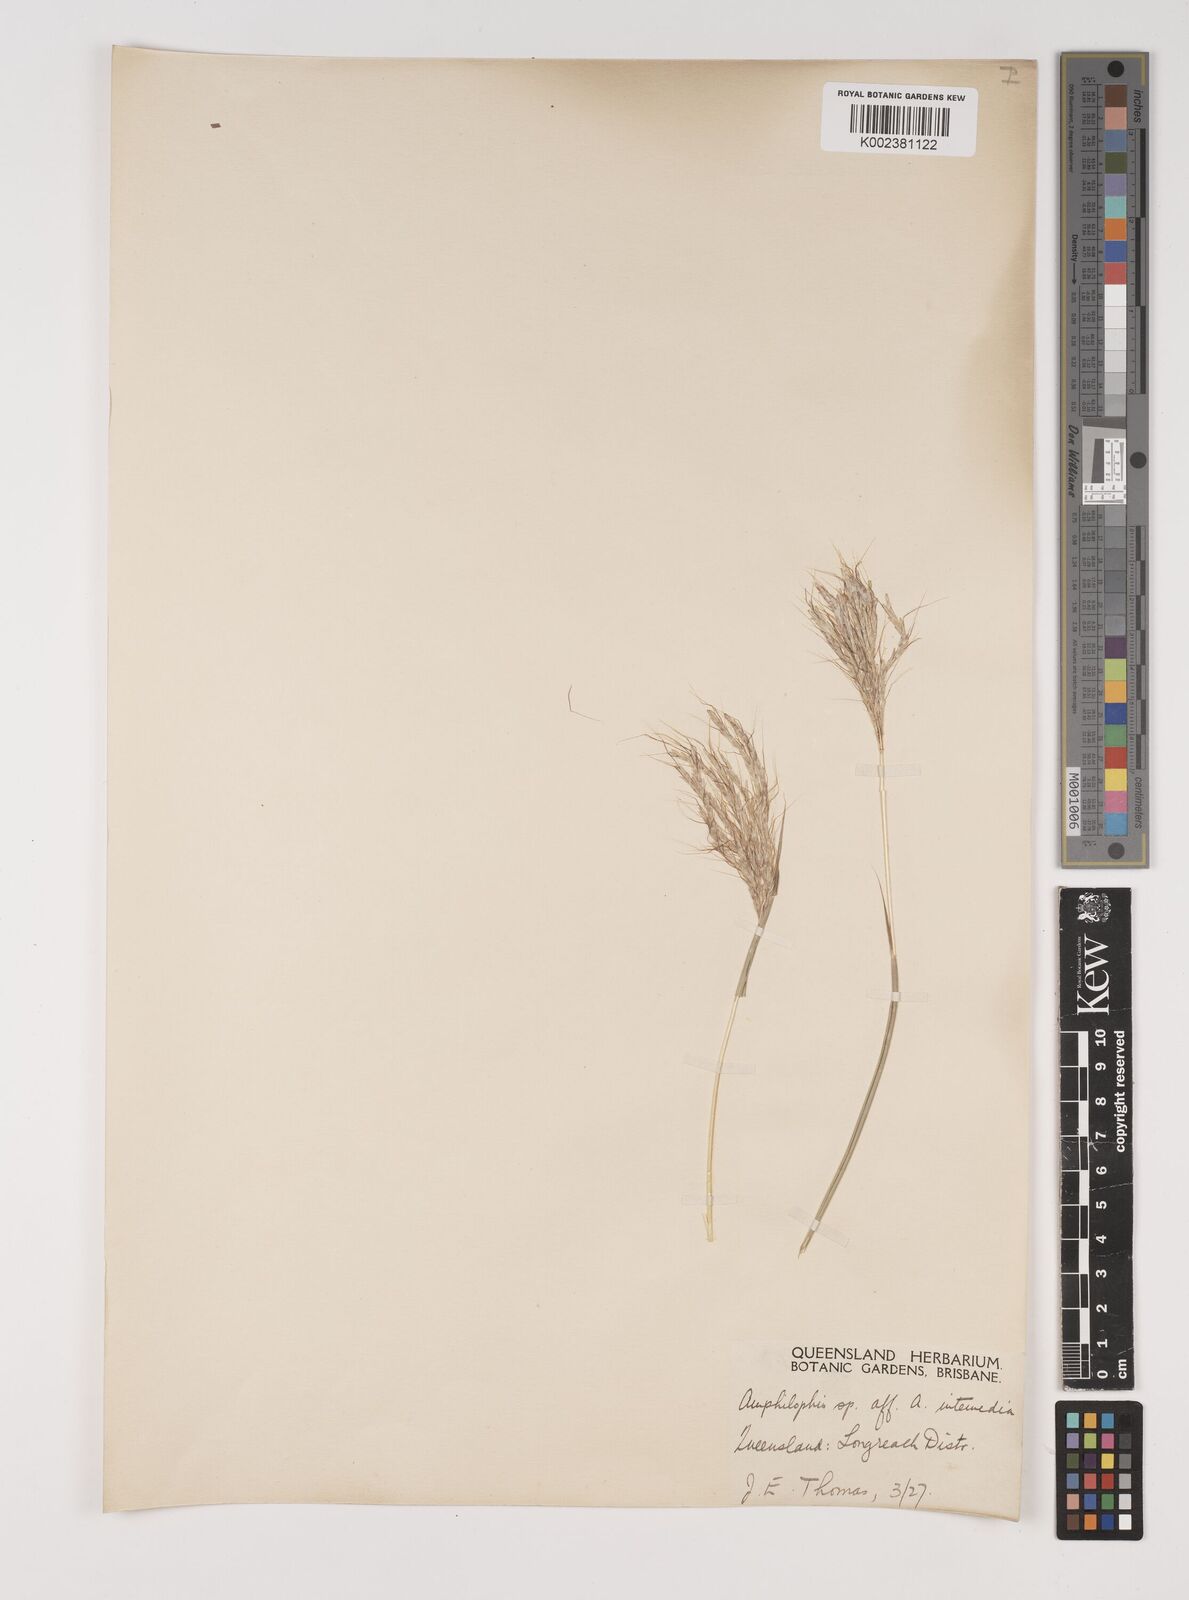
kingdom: Plantae
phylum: Tracheophyta
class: Liliopsida
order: Poales
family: Poaceae
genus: Bothriochloa
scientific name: Bothriochloa ewartiana
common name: Desert-bluegrass
